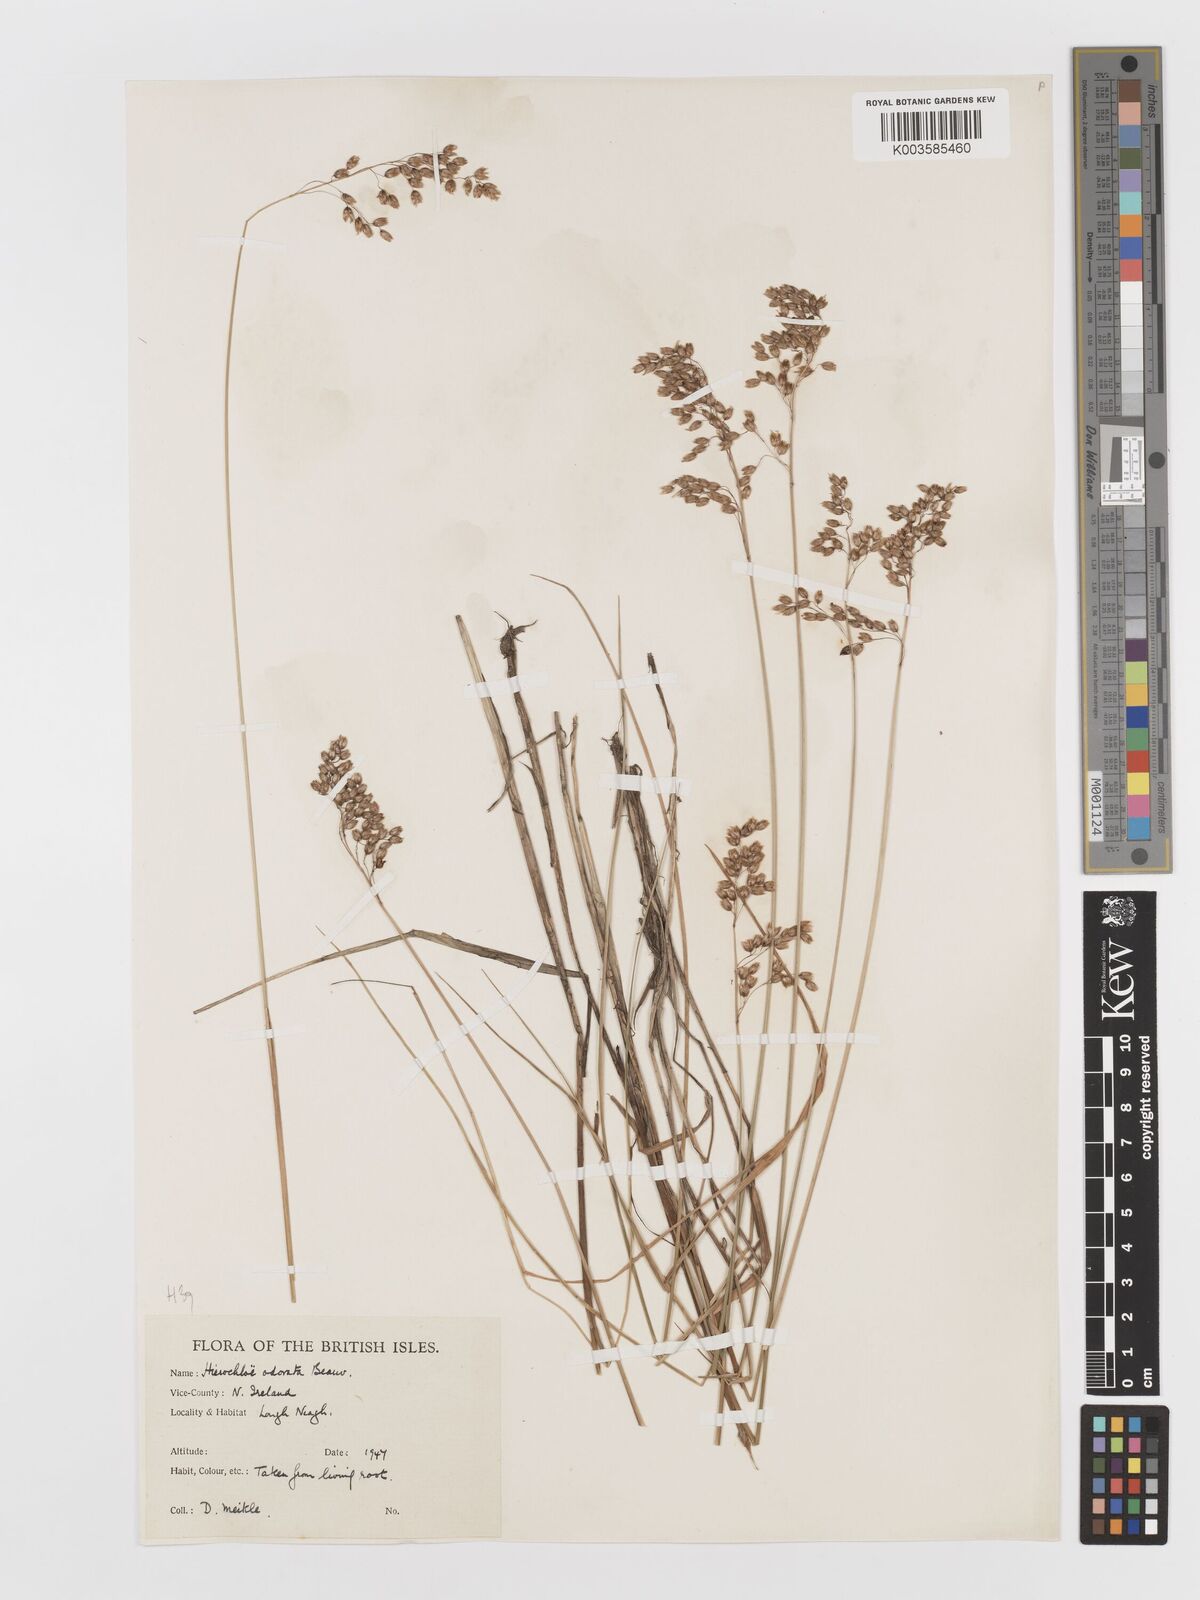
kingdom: Plantae
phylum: Tracheophyta
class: Liliopsida
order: Poales
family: Poaceae
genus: Anthoxanthum
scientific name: Anthoxanthum nitens
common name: Holy grass
